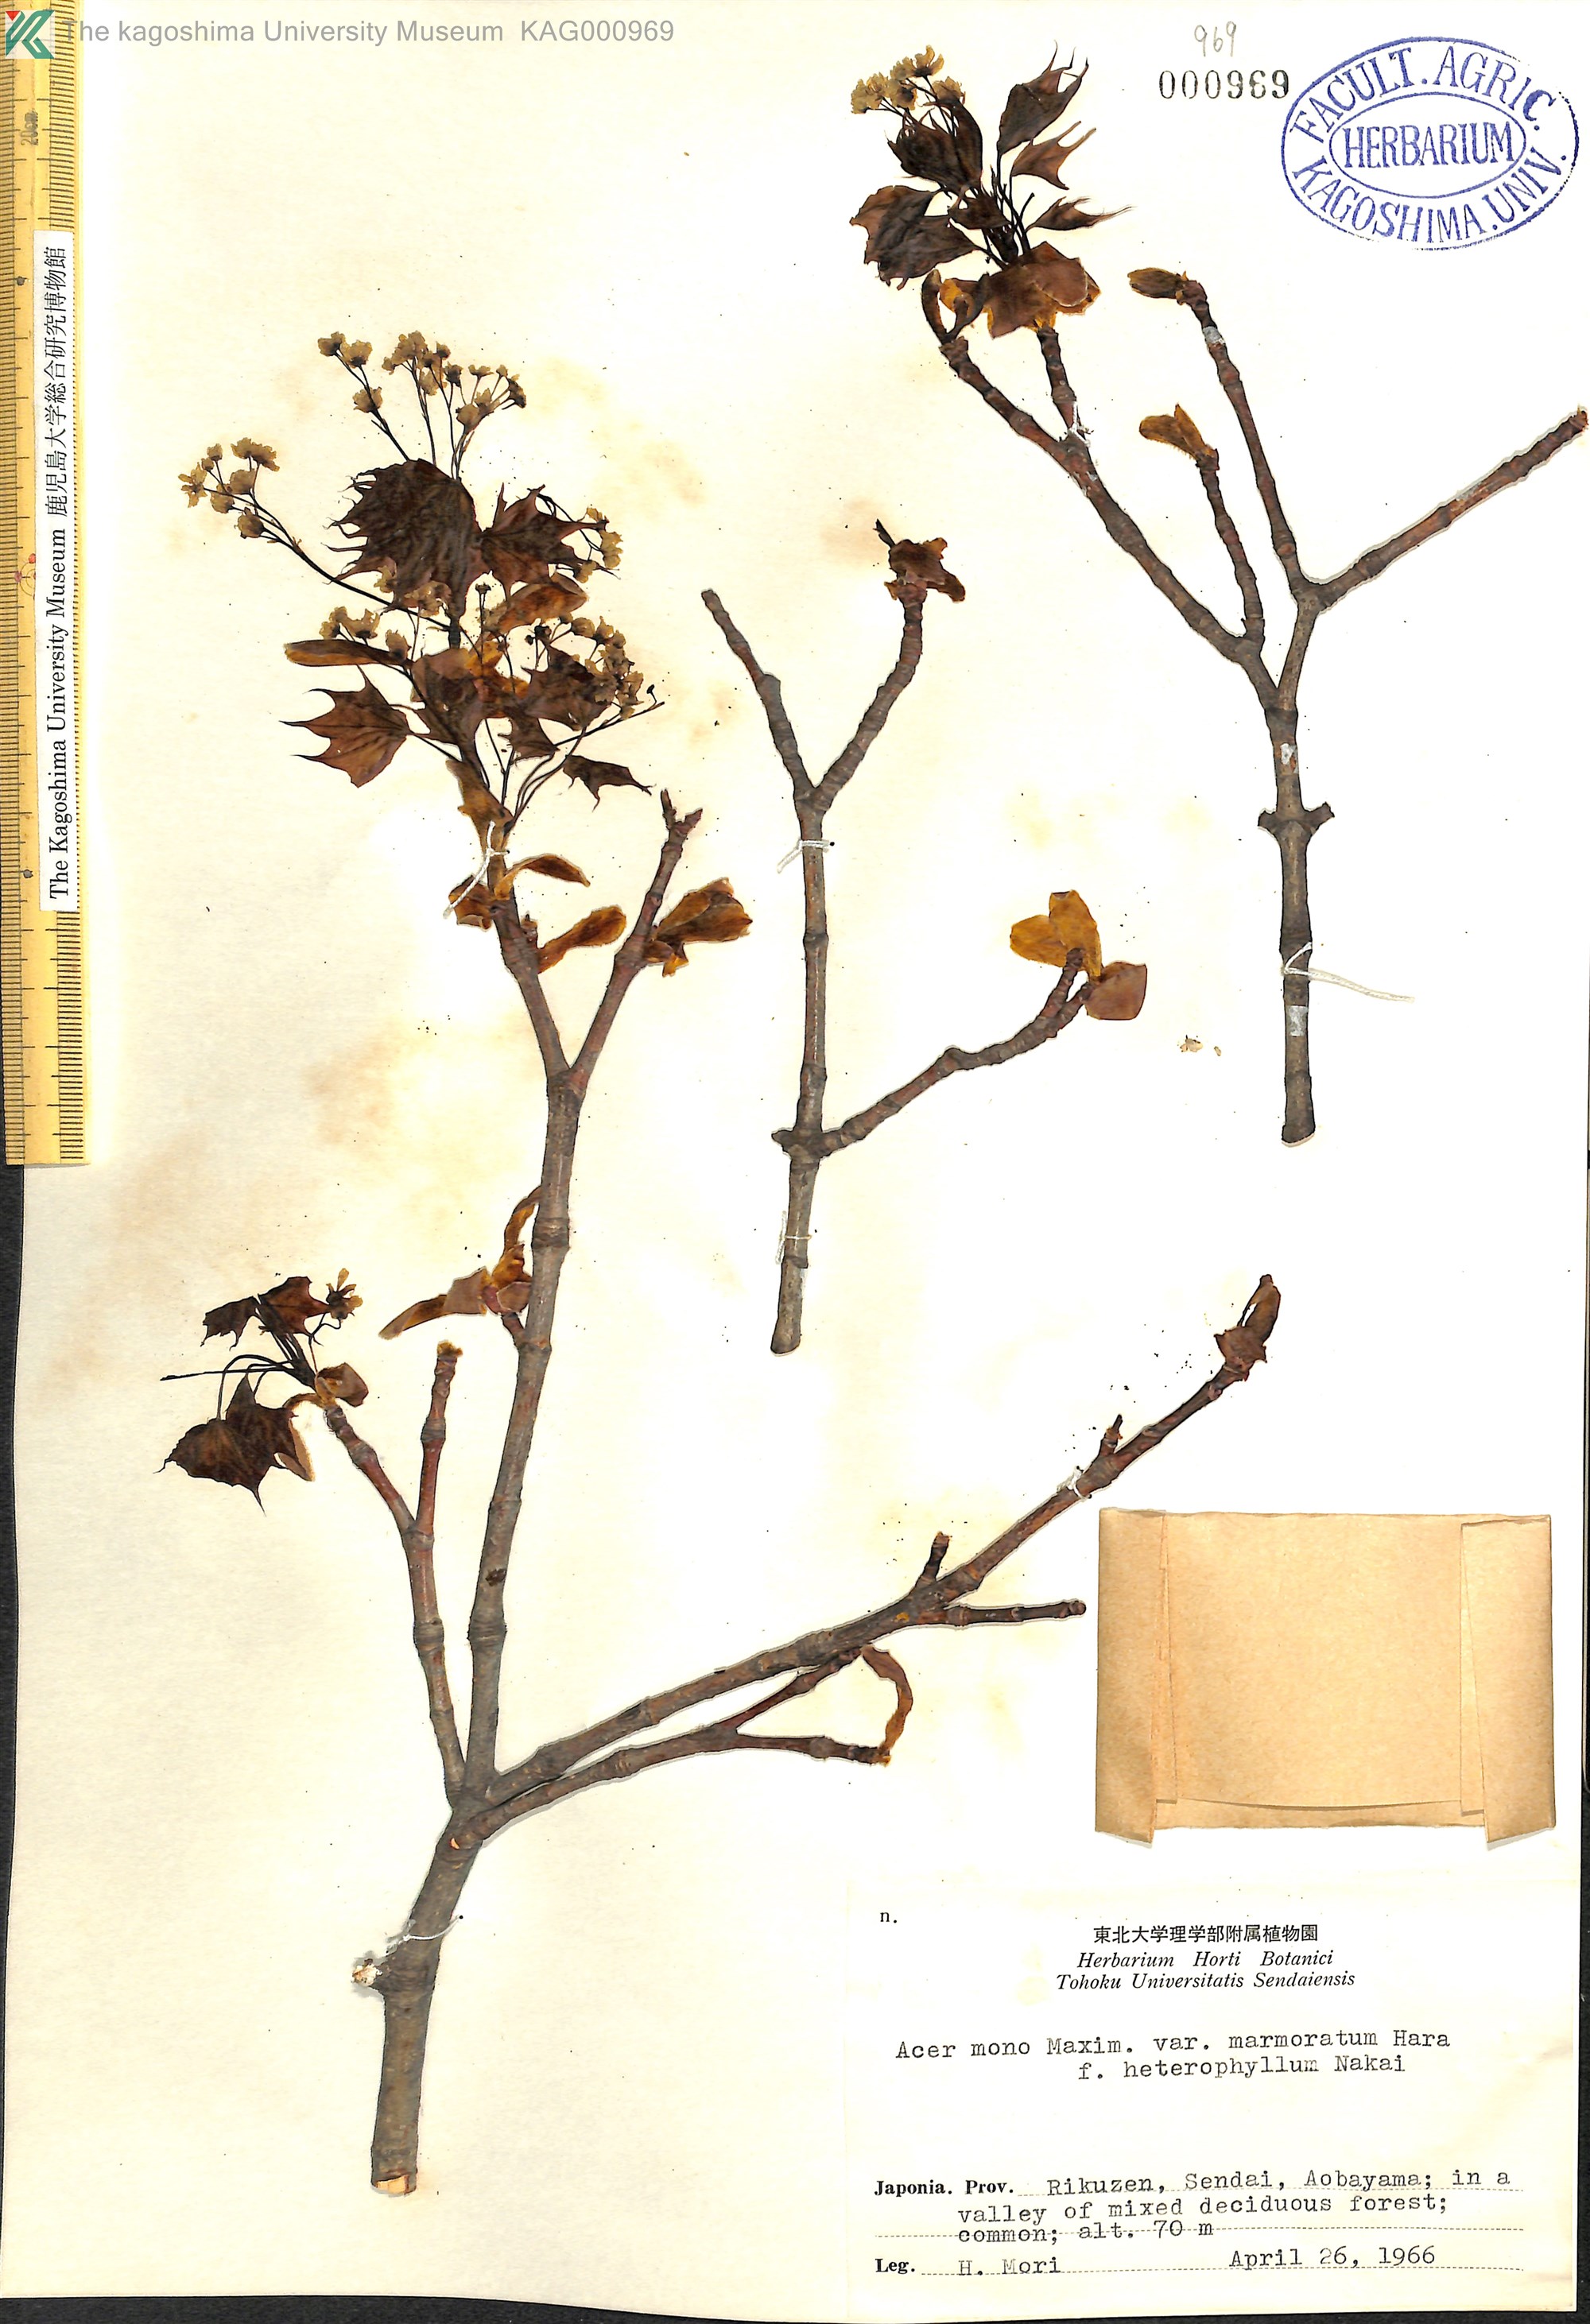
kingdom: Plantae
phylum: Tracheophyta
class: Magnoliopsida
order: Sapindales
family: Sapindaceae
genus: Acer
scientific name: Acer pictum
